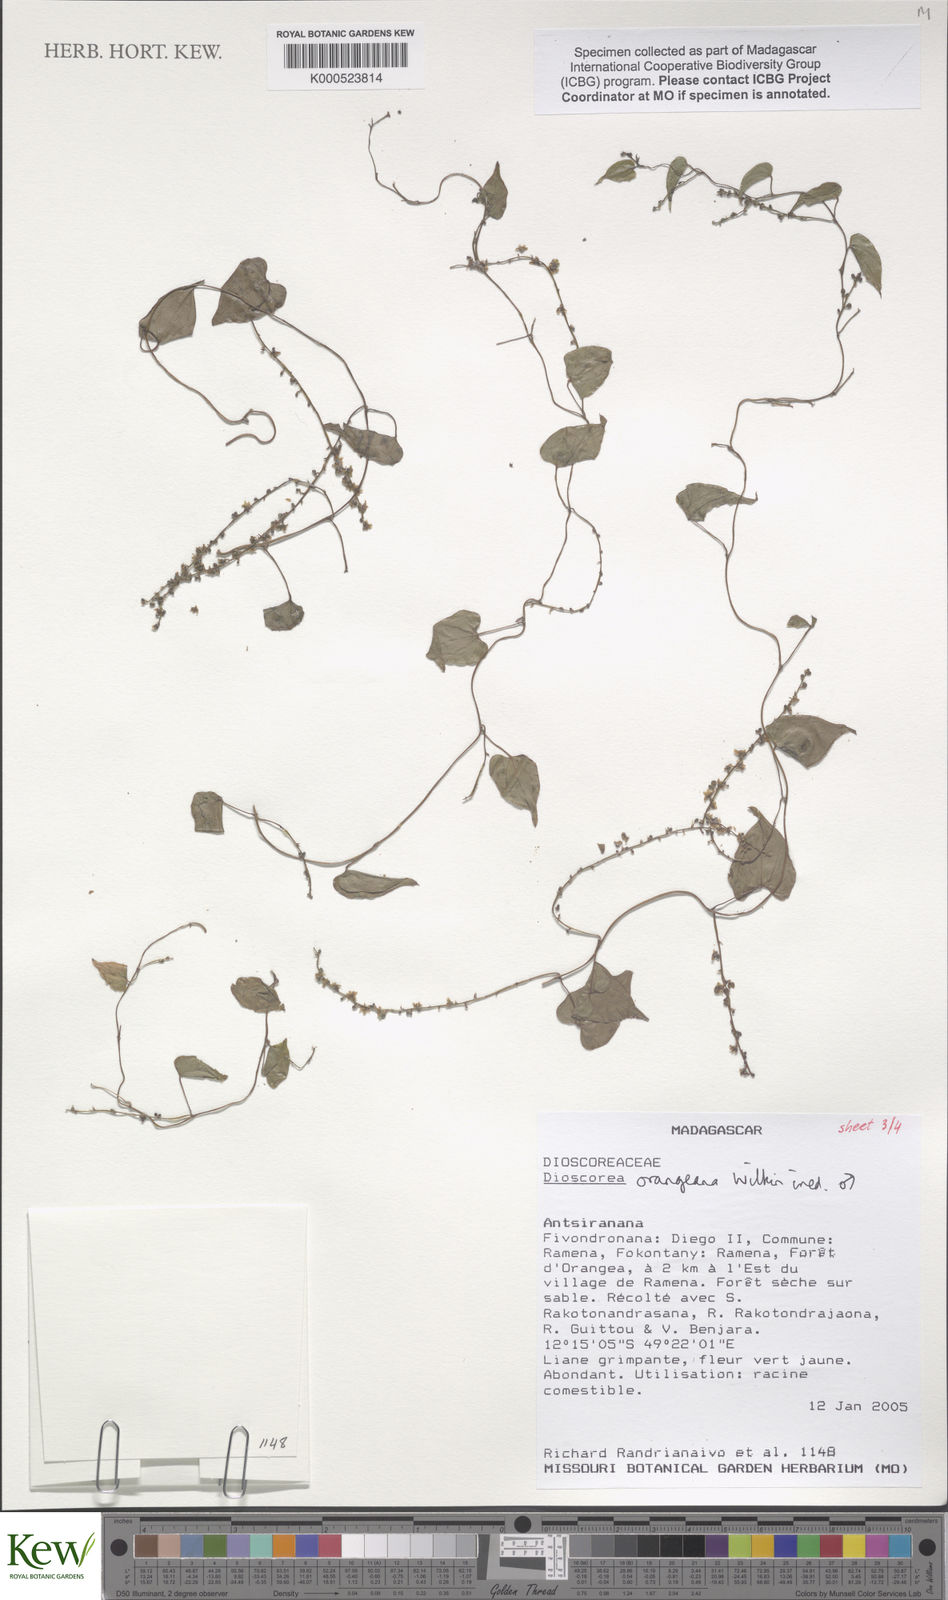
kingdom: Plantae
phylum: Tracheophyta
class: Liliopsida
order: Dioscoreales
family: Dioscoreaceae
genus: Dioscorea
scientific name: Dioscorea orangeana
